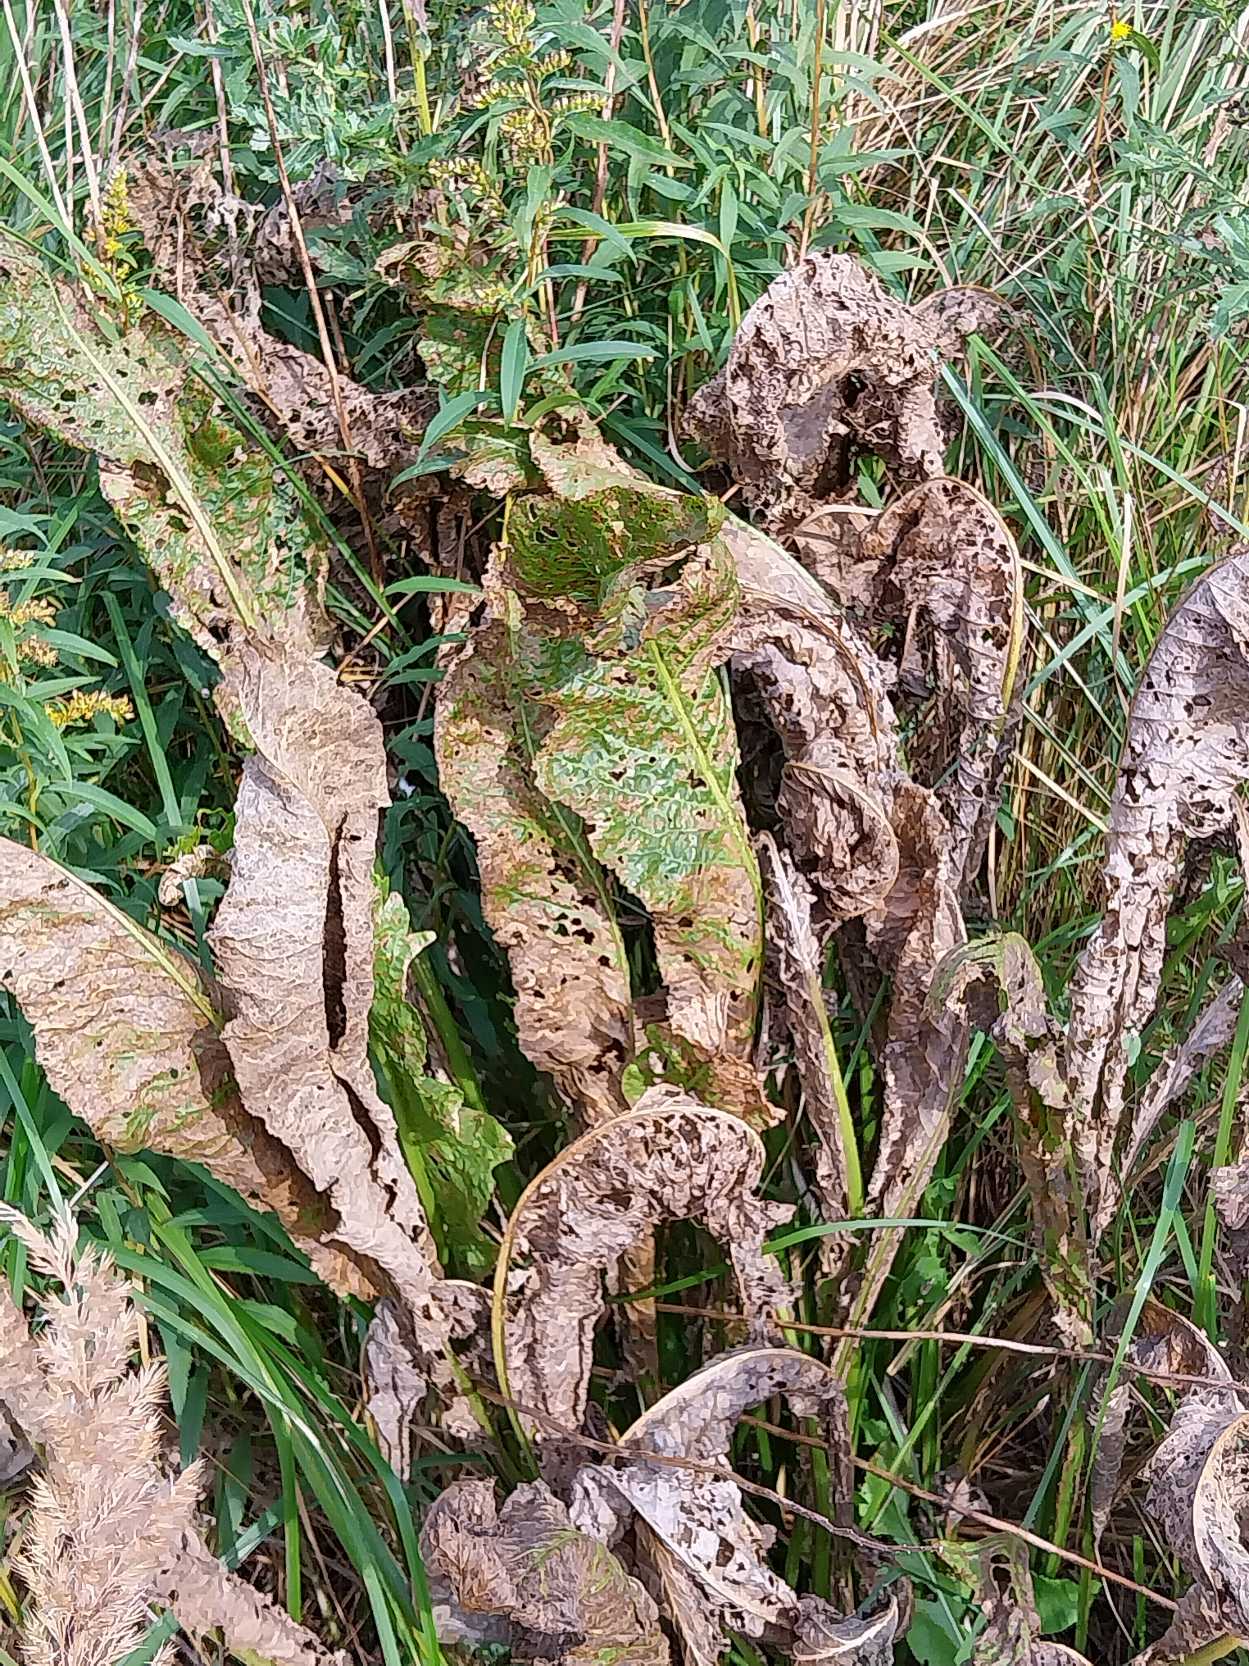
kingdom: Plantae
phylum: Tracheophyta
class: Magnoliopsida
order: Brassicales
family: Brassicaceae
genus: Armoracia
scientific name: Armoracia rusticana
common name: Peberrod
